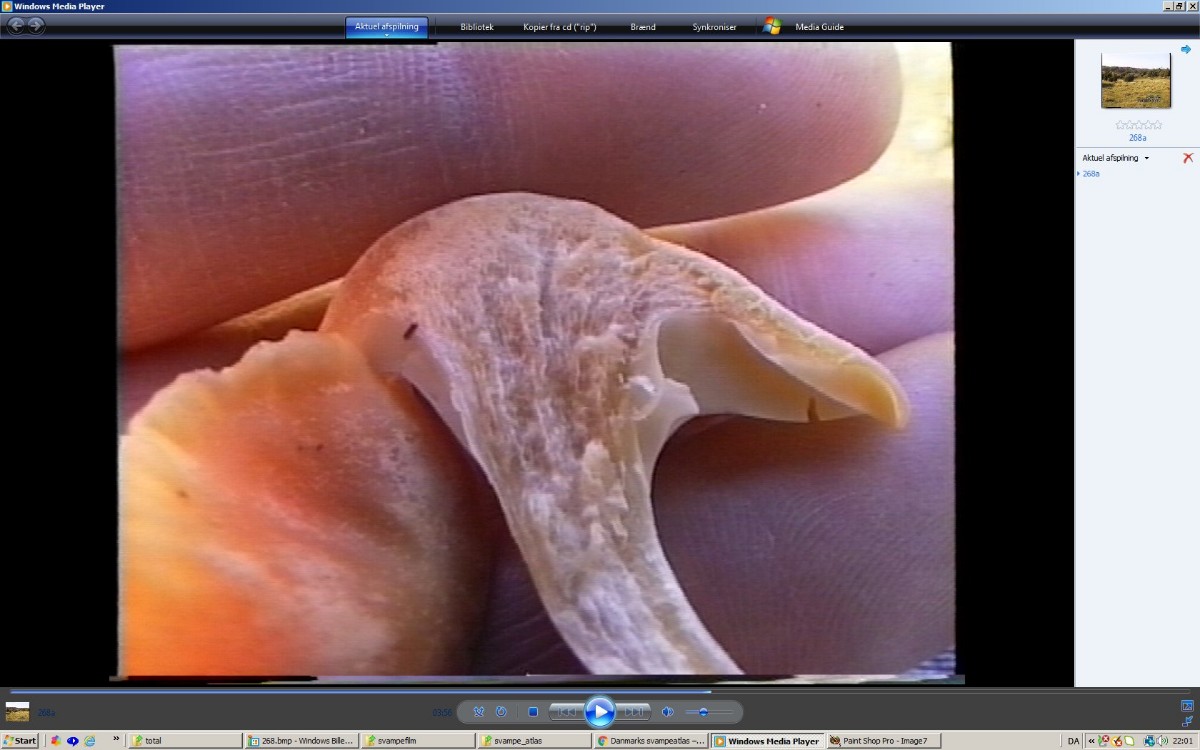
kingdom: Fungi
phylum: Basidiomycota
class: Agaricomycetes
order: Agaricales
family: Hygrophoraceae
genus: Cuphophyllus
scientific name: Cuphophyllus pratensis
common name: eng-vokshat
